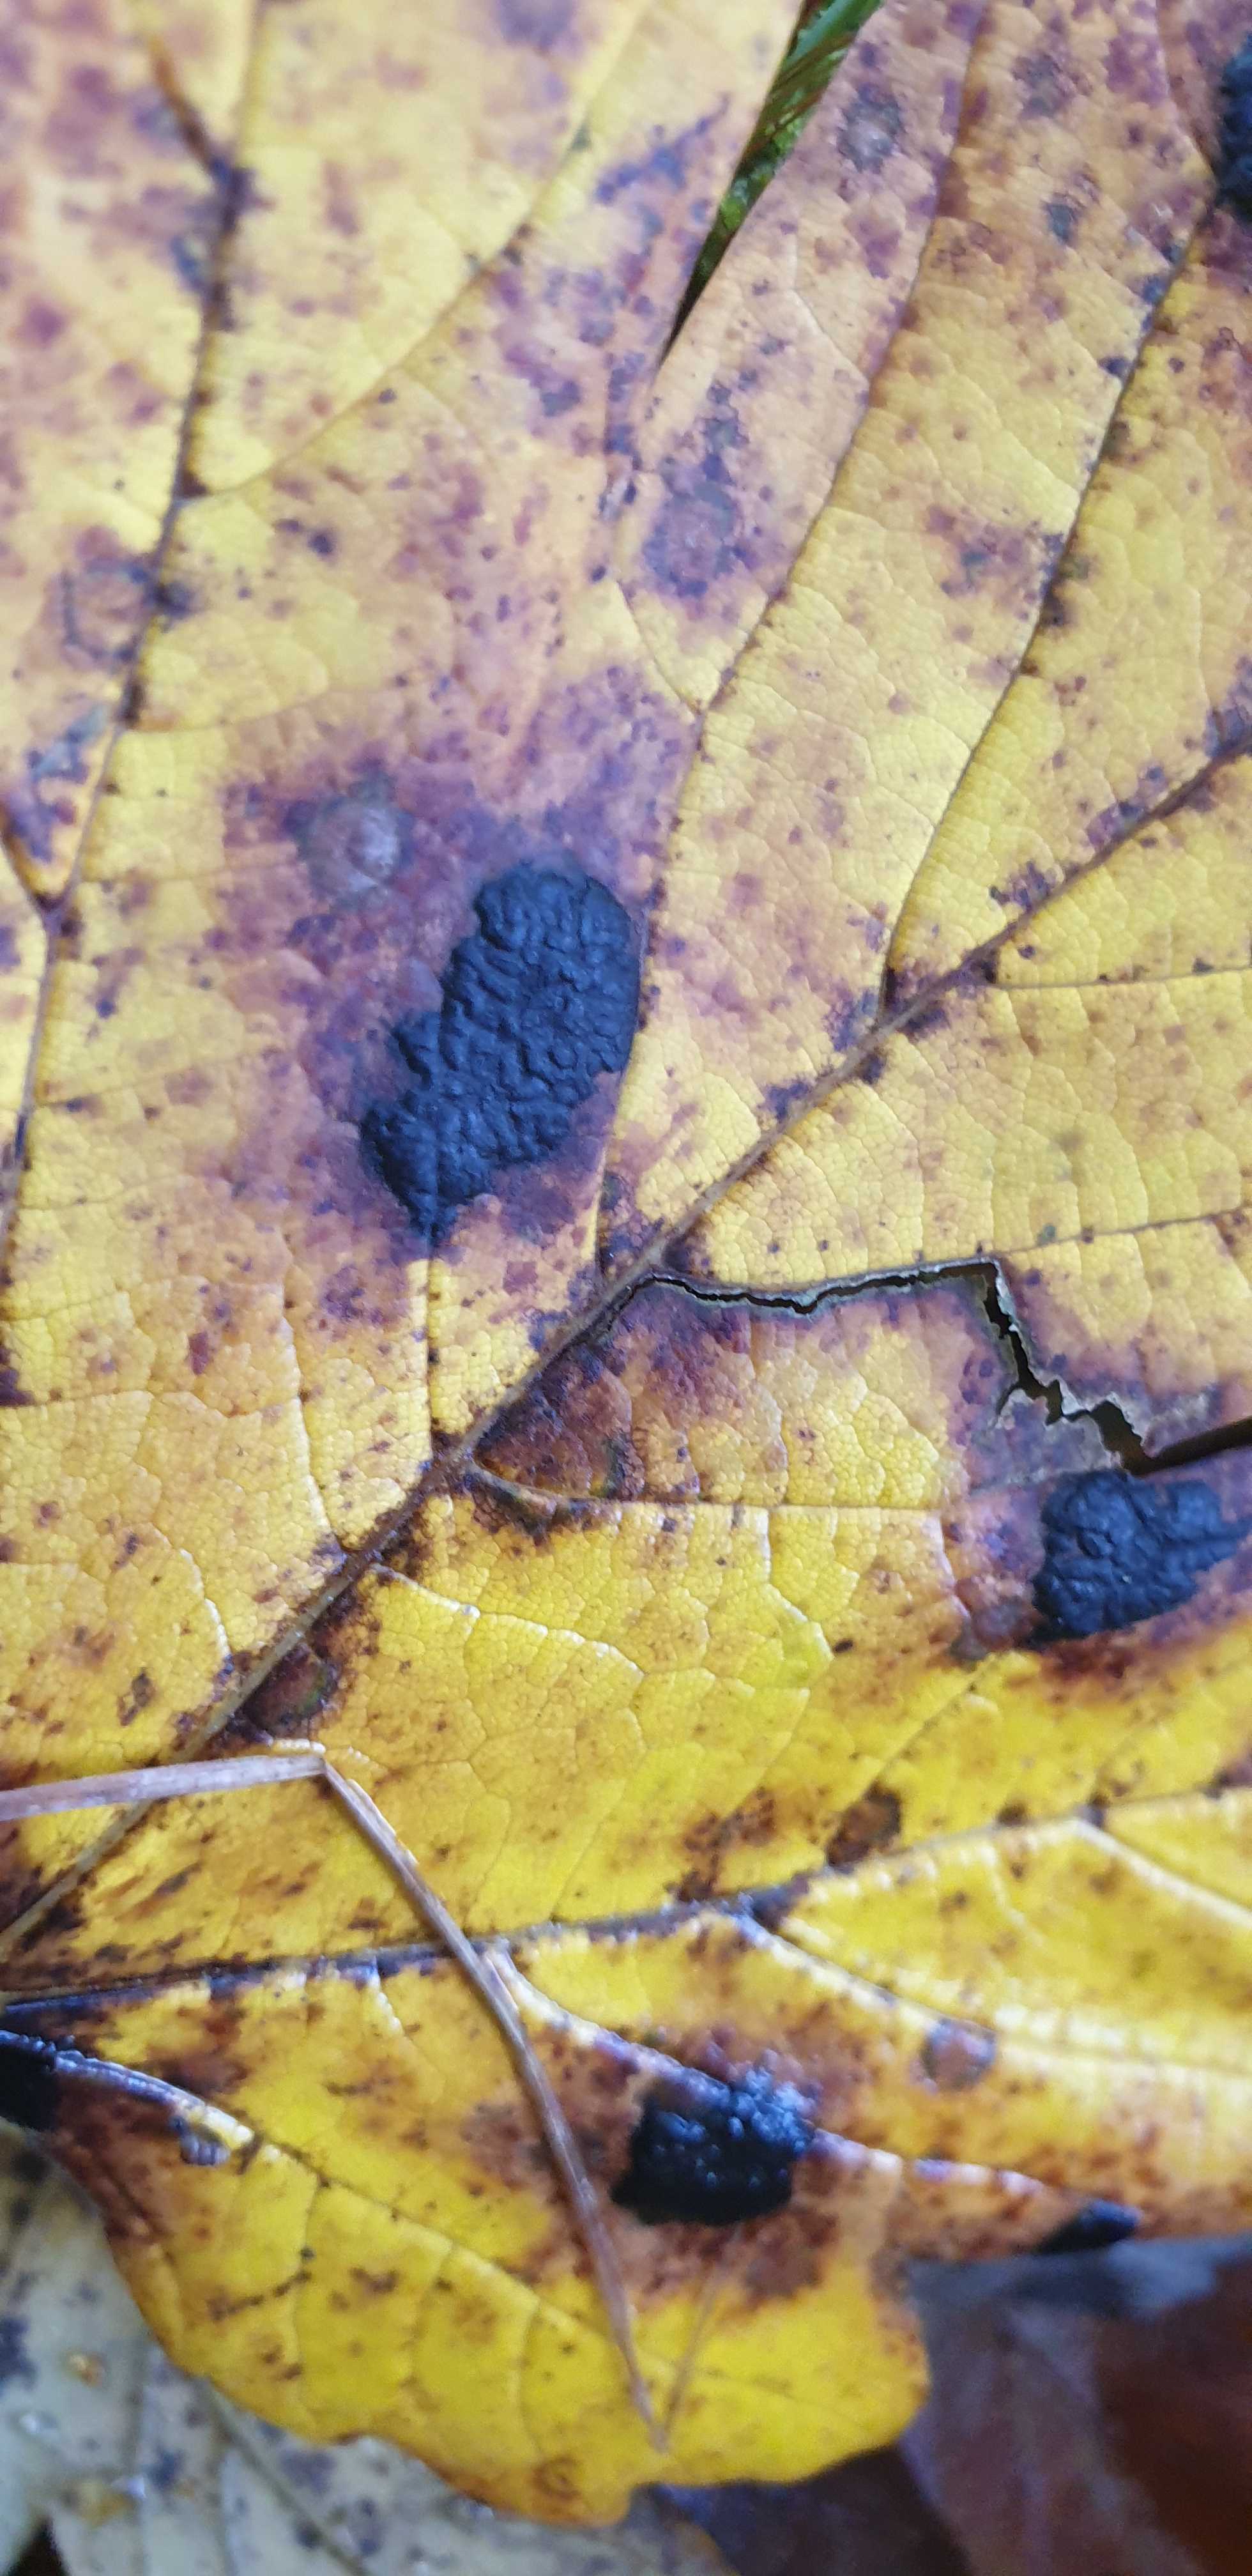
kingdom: Fungi
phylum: Ascomycota
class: Leotiomycetes
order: Rhytismatales
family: Rhytismataceae
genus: Rhytisma
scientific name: Rhytisma acerinum
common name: ahorn-rynkeplet
